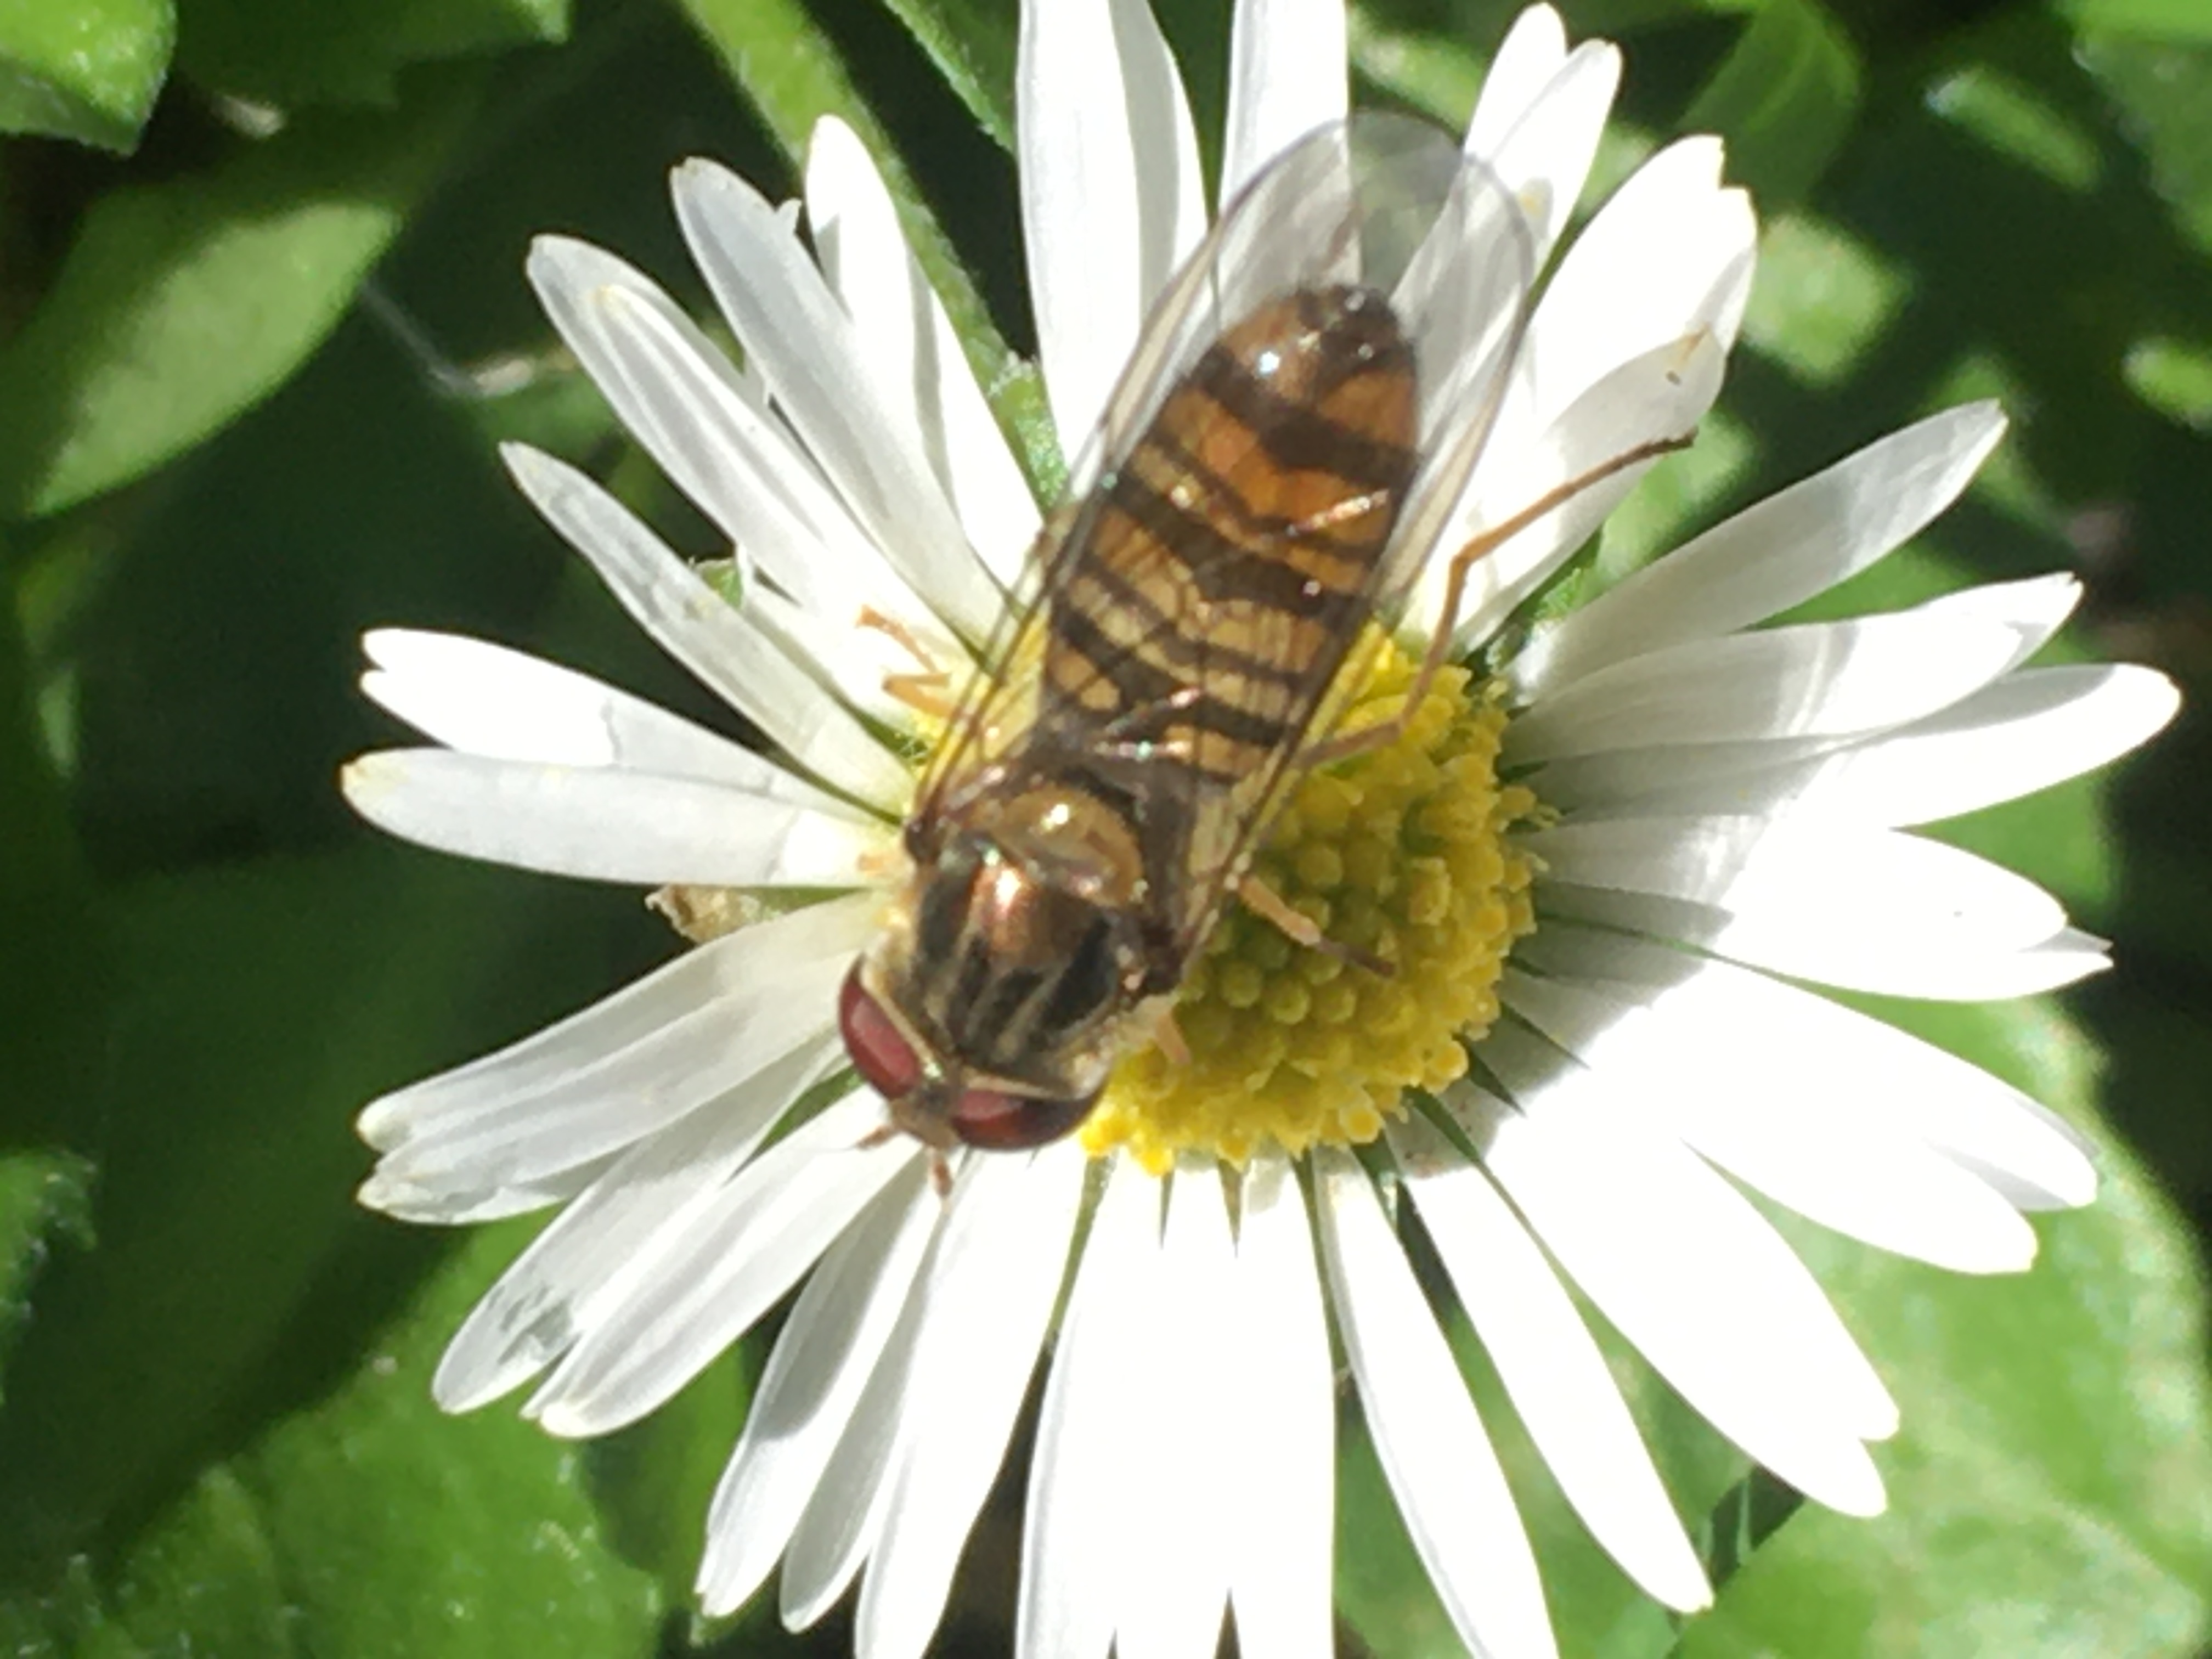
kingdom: Animalia
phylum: Arthropoda
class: Insecta
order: Diptera
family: Syrphidae
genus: Episyrphus
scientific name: Episyrphus balteatus
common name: Dobbeltbåndet svirreflue
